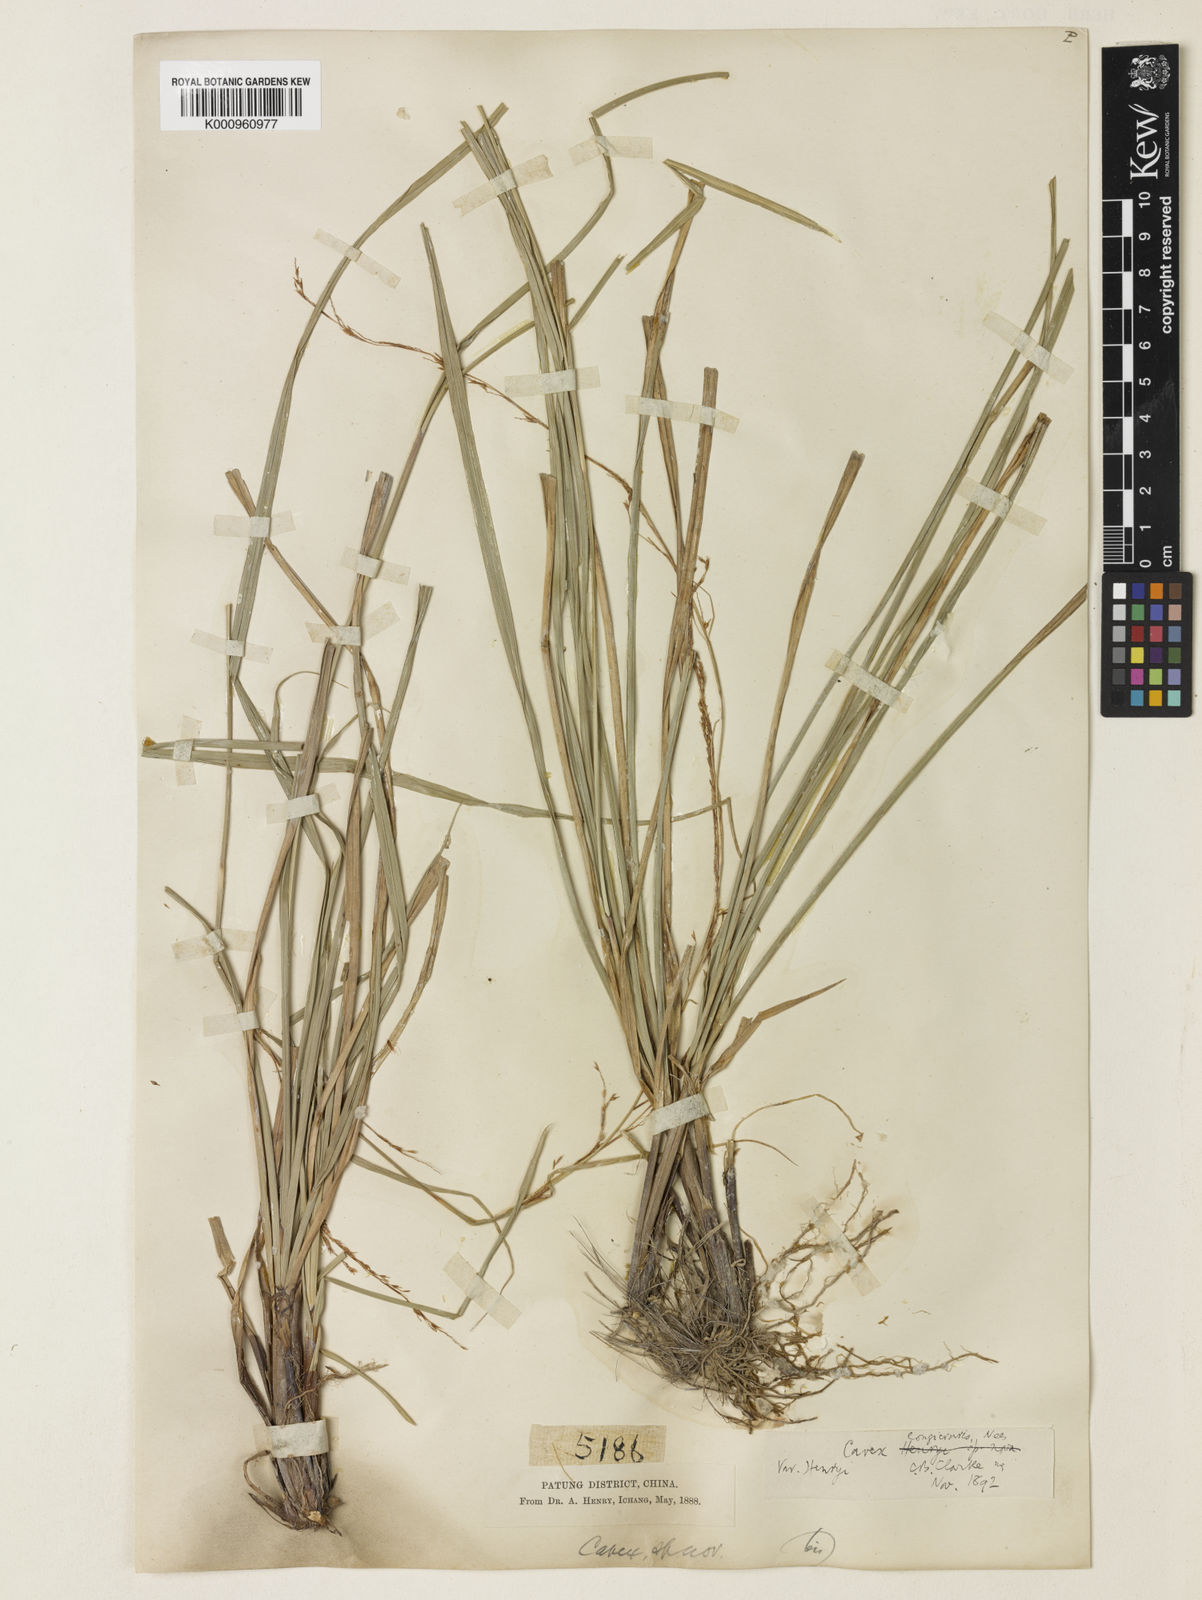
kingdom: Plantae
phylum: Tracheophyta
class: Liliopsida
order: Poales
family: Cyperaceae
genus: Carex
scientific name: Carex longicruris
